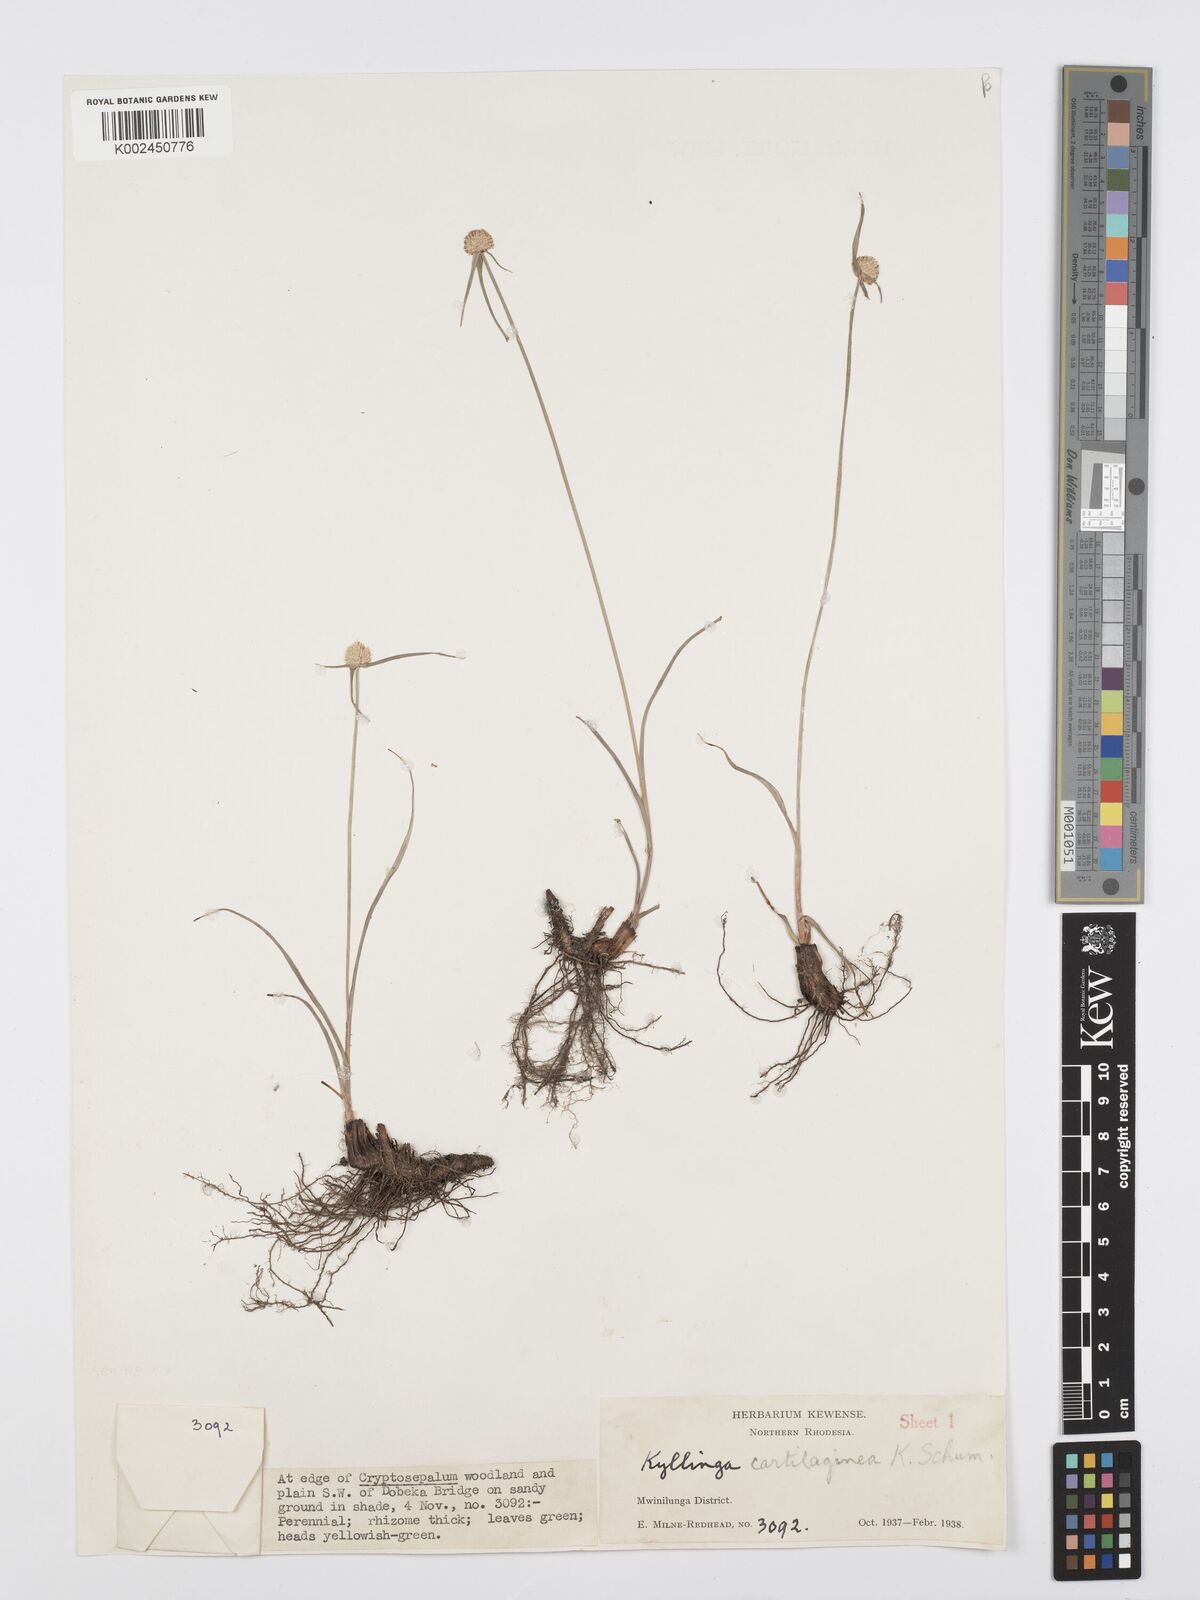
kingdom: Plantae
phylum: Tracheophyta
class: Liliopsida
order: Poales
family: Cyperaceae
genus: Cyperus
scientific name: Cyperus rukwanus
